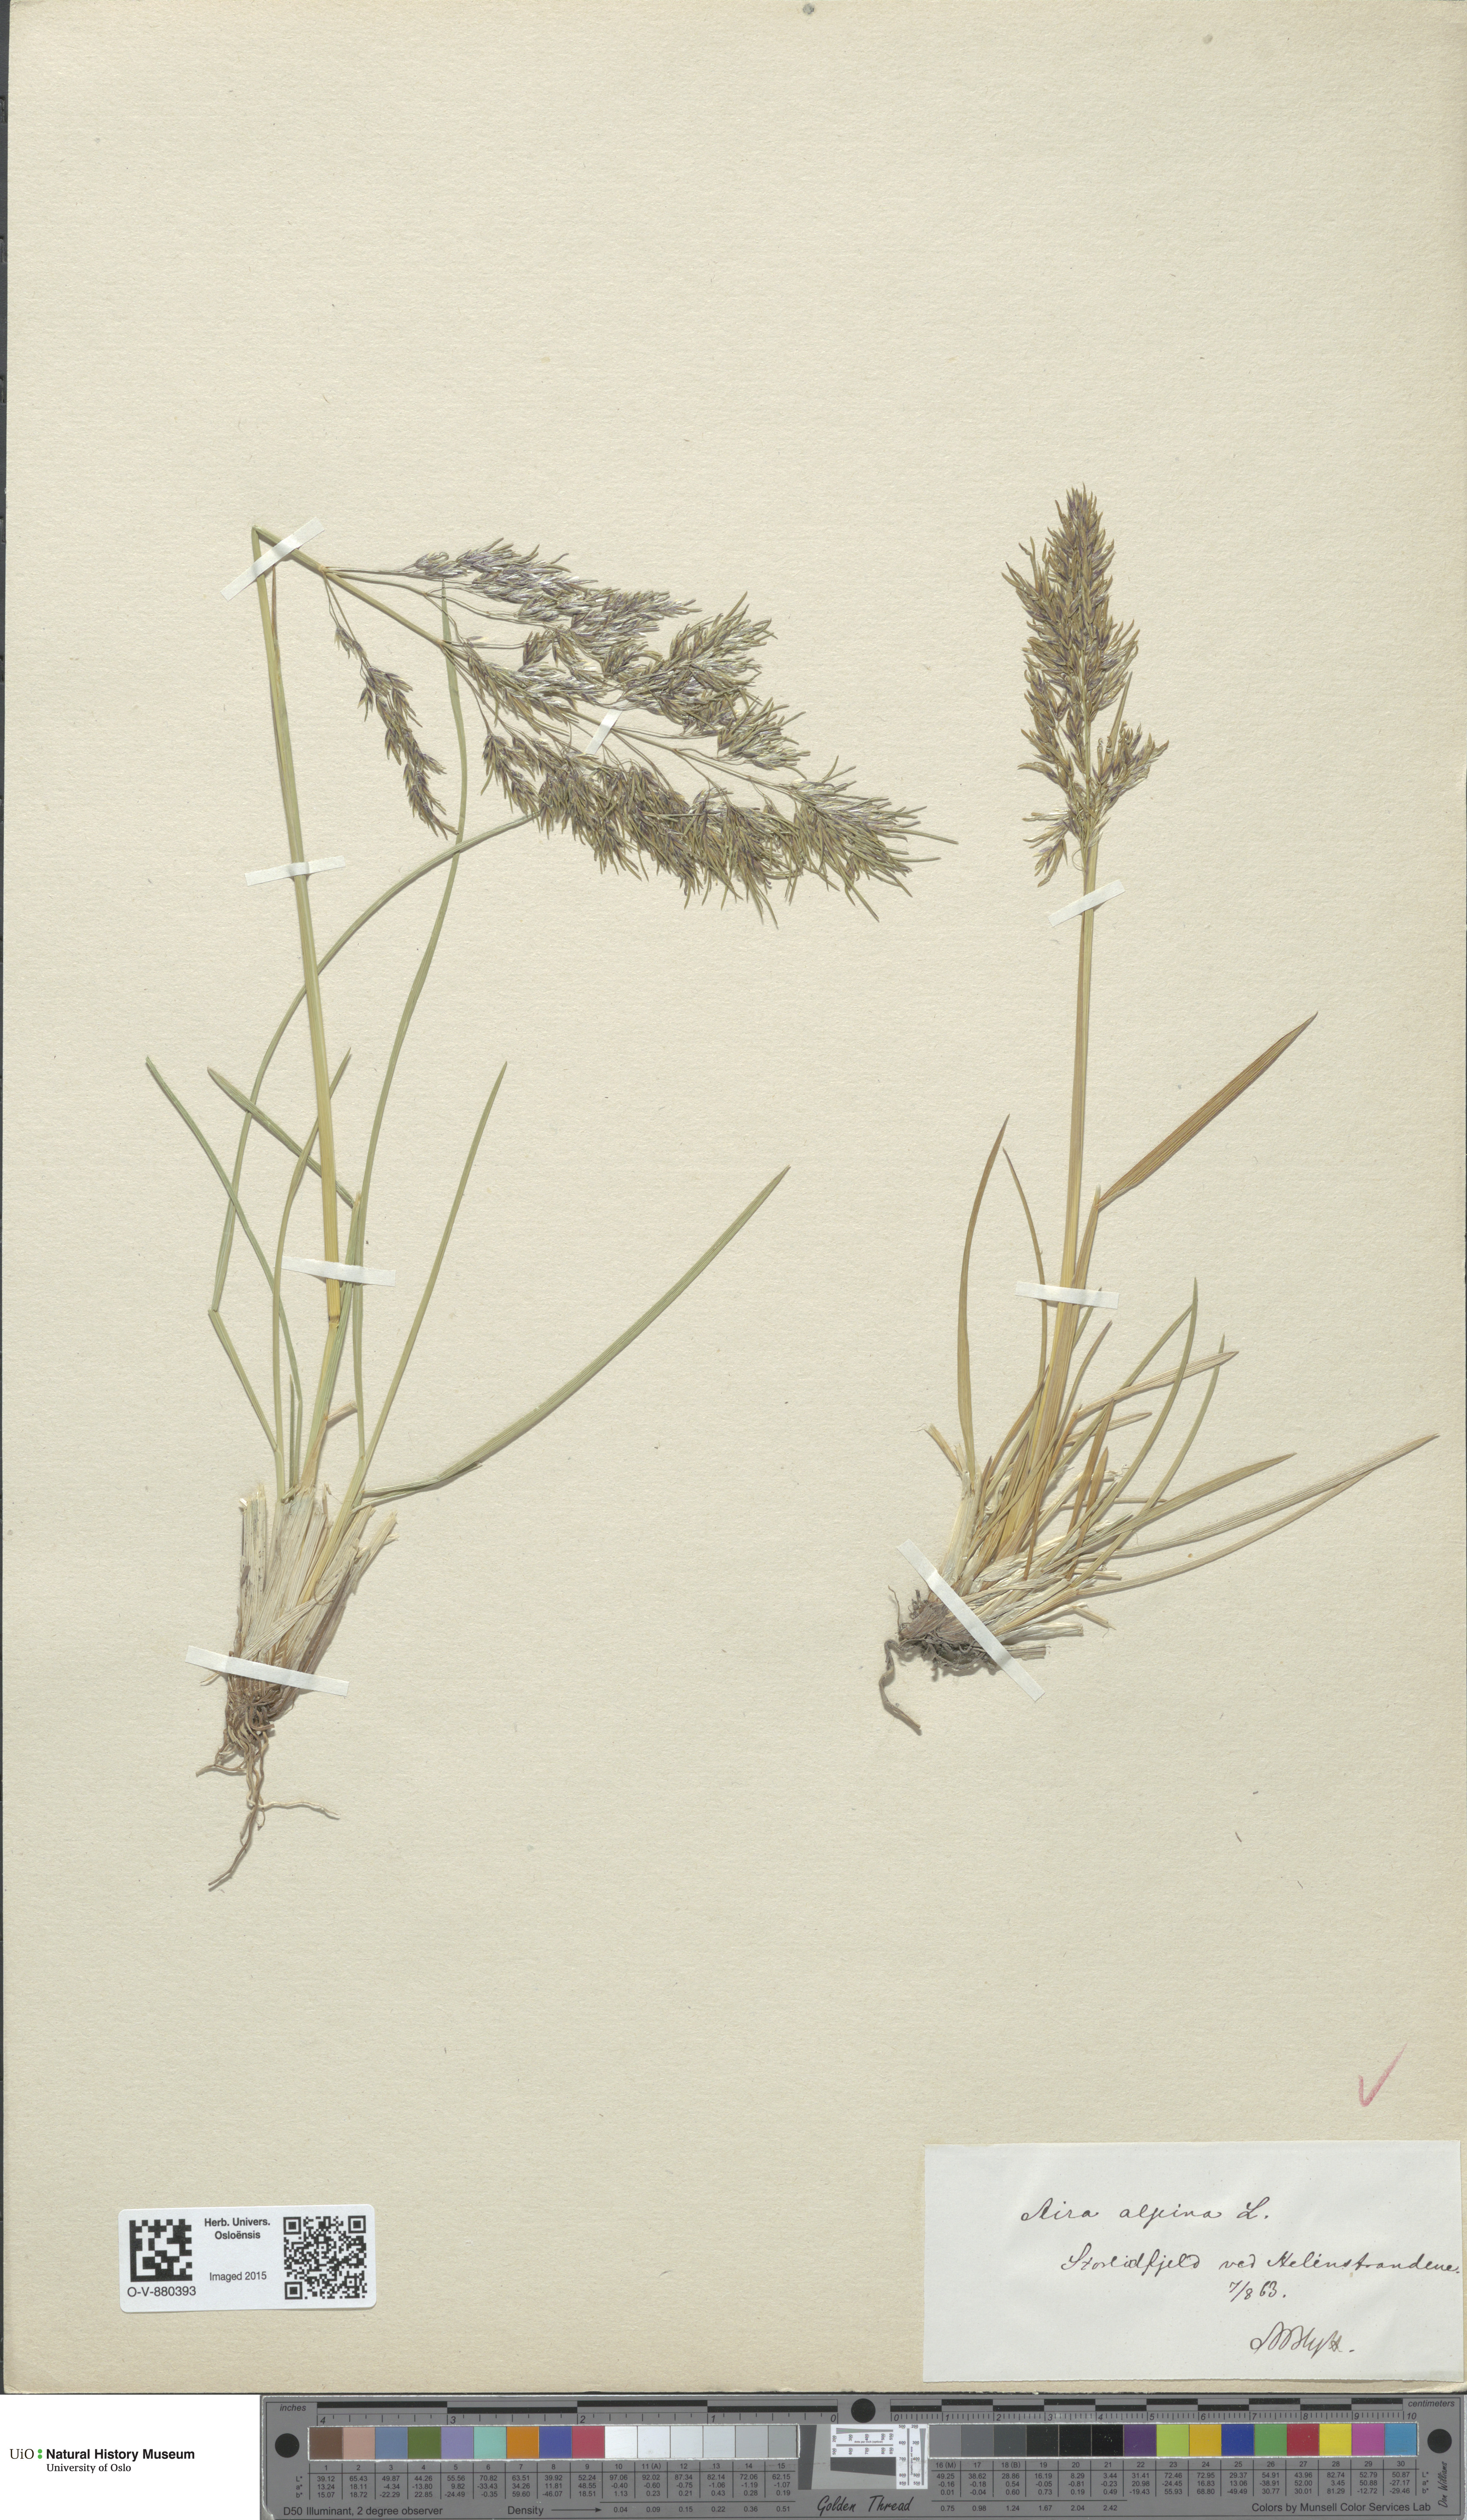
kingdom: Plantae
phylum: Tracheophyta
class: Liliopsida
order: Poales
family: Poaceae
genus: Deschampsia
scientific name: Deschampsia cespitosa
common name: Tufted hair-grass
